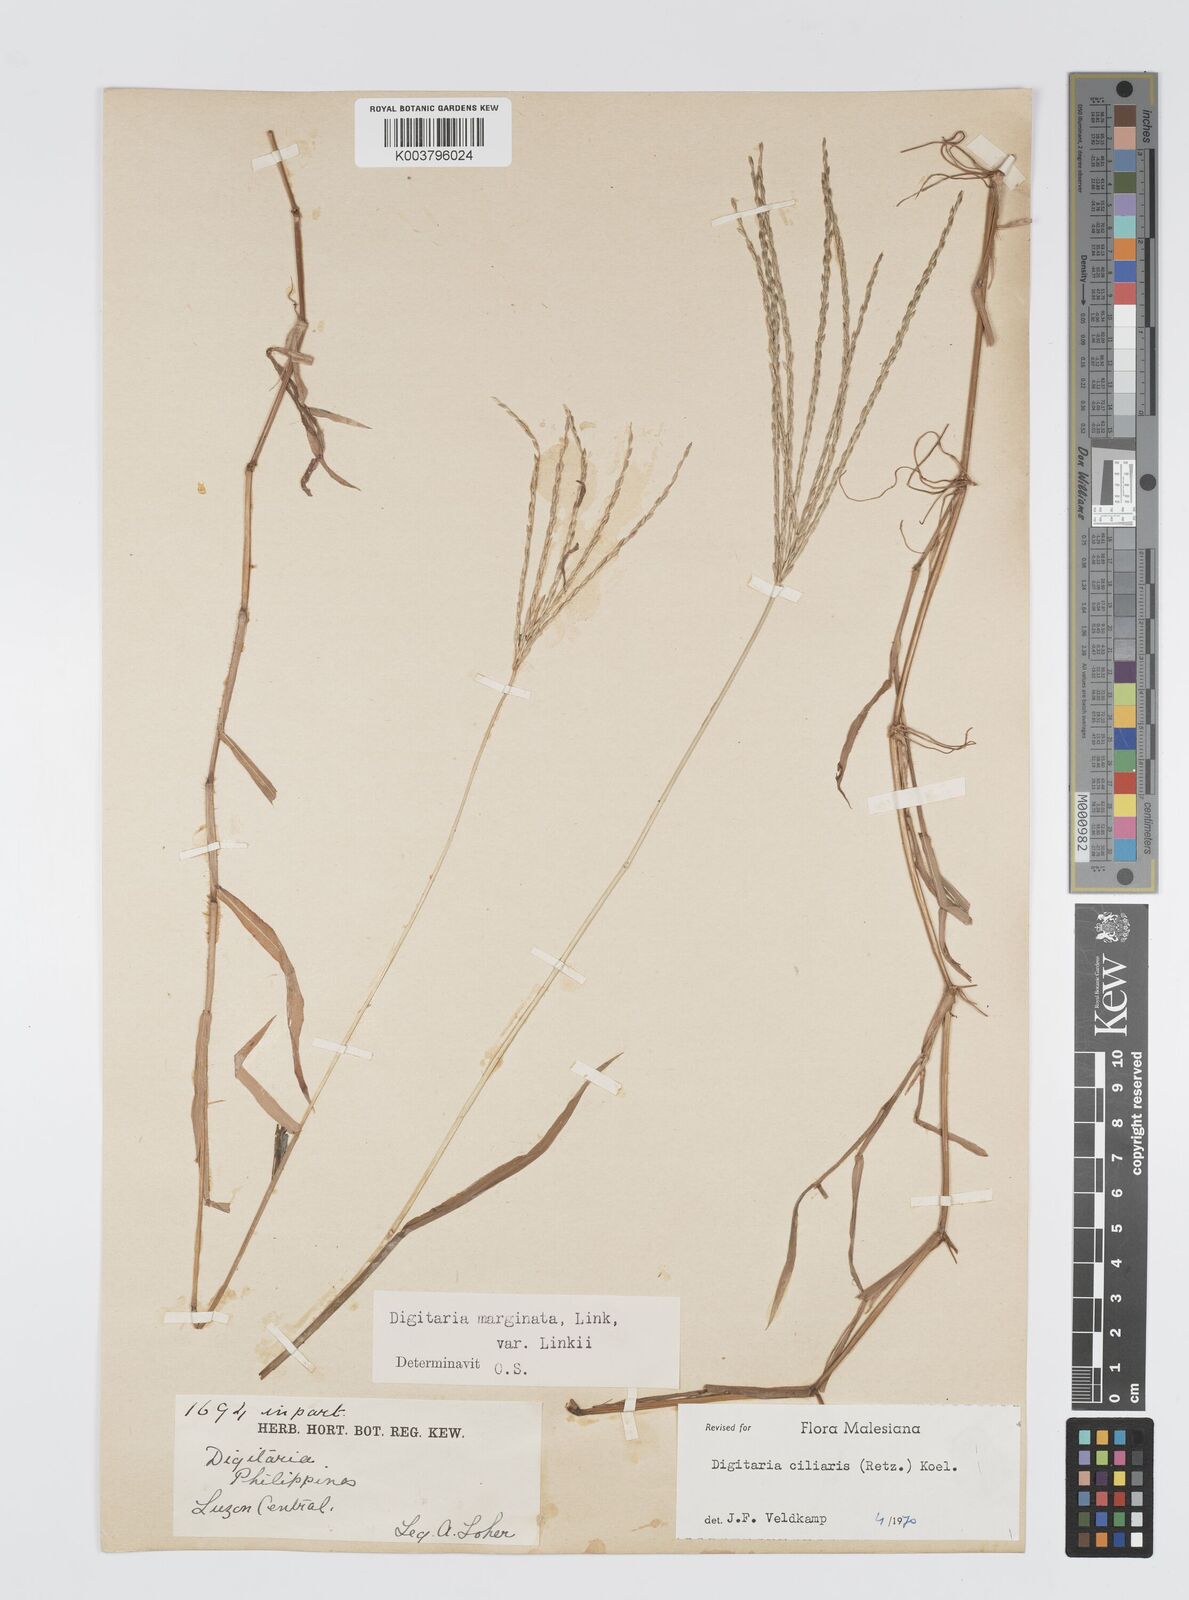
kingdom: Plantae
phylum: Tracheophyta
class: Liliopsida
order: Poales
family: Poaceae
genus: Digitaria
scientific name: Digitaria ciliaris
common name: Tropical finger-grass
